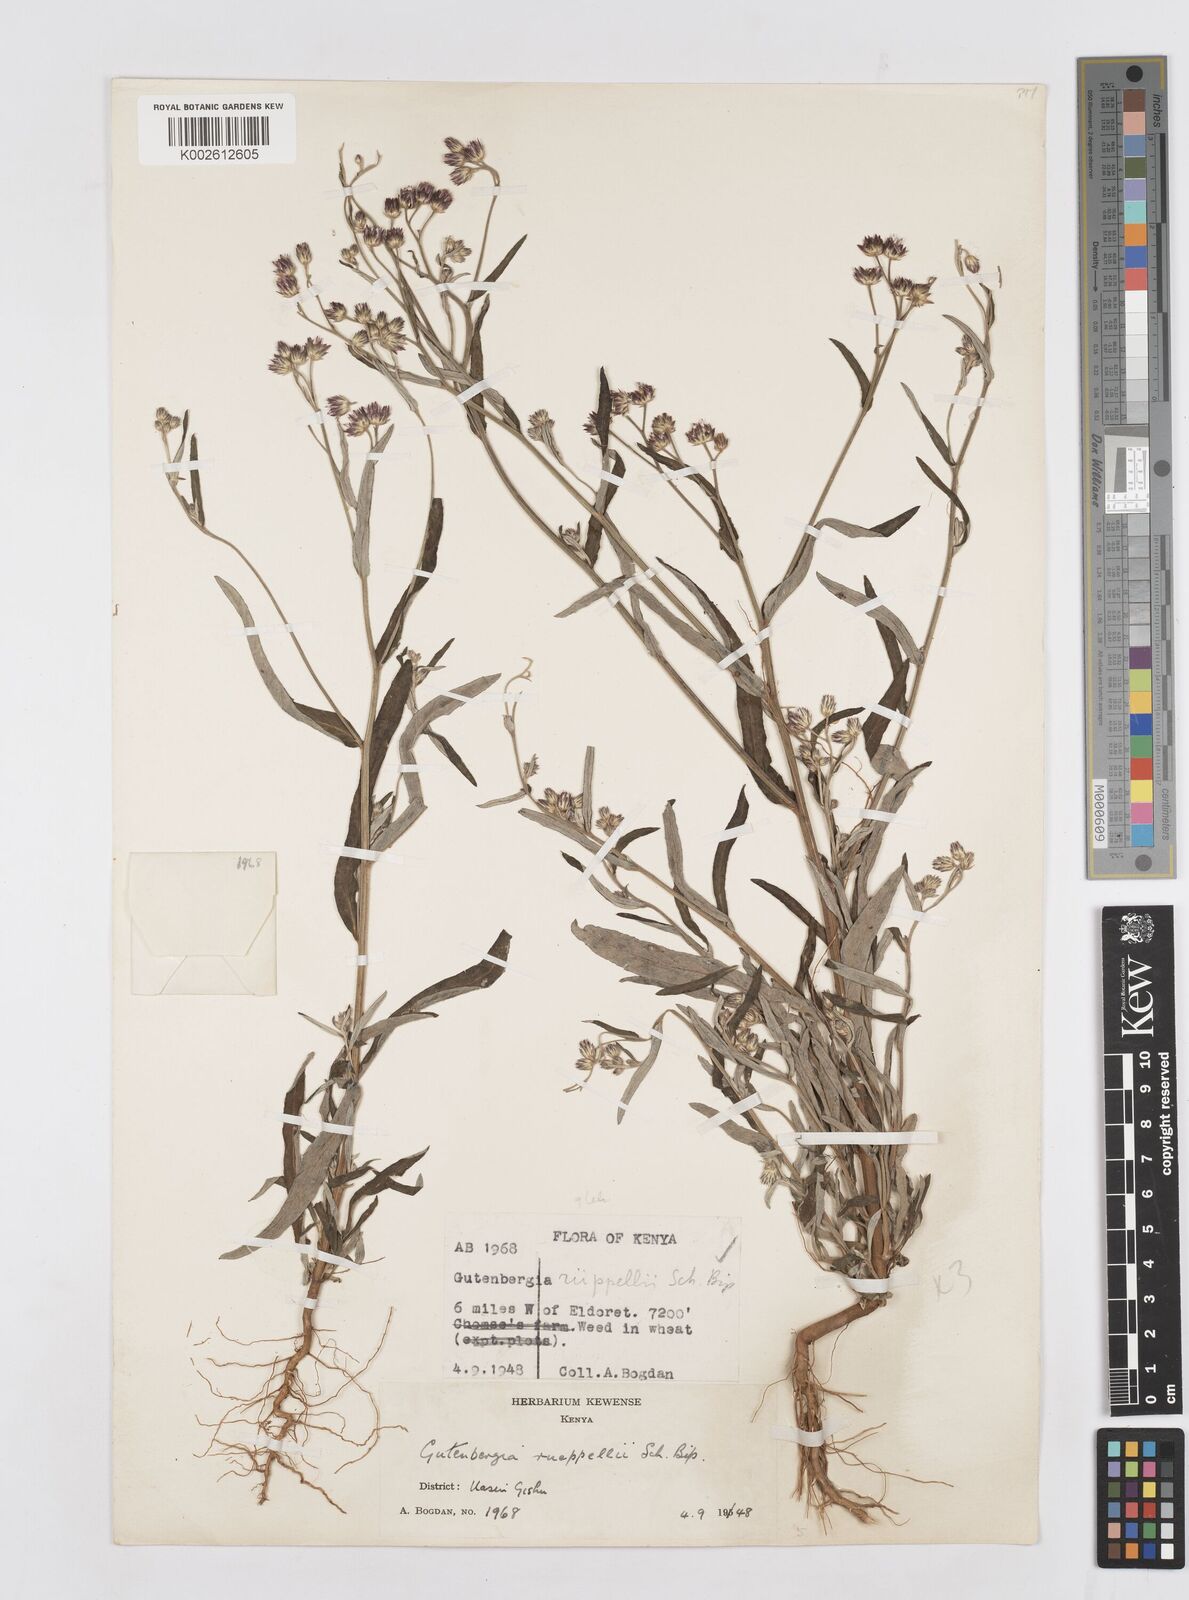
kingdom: Plantae
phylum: Tracheophyta
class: Magnoliopsida
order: Asterales
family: Asteraceae
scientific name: Asteraceae
